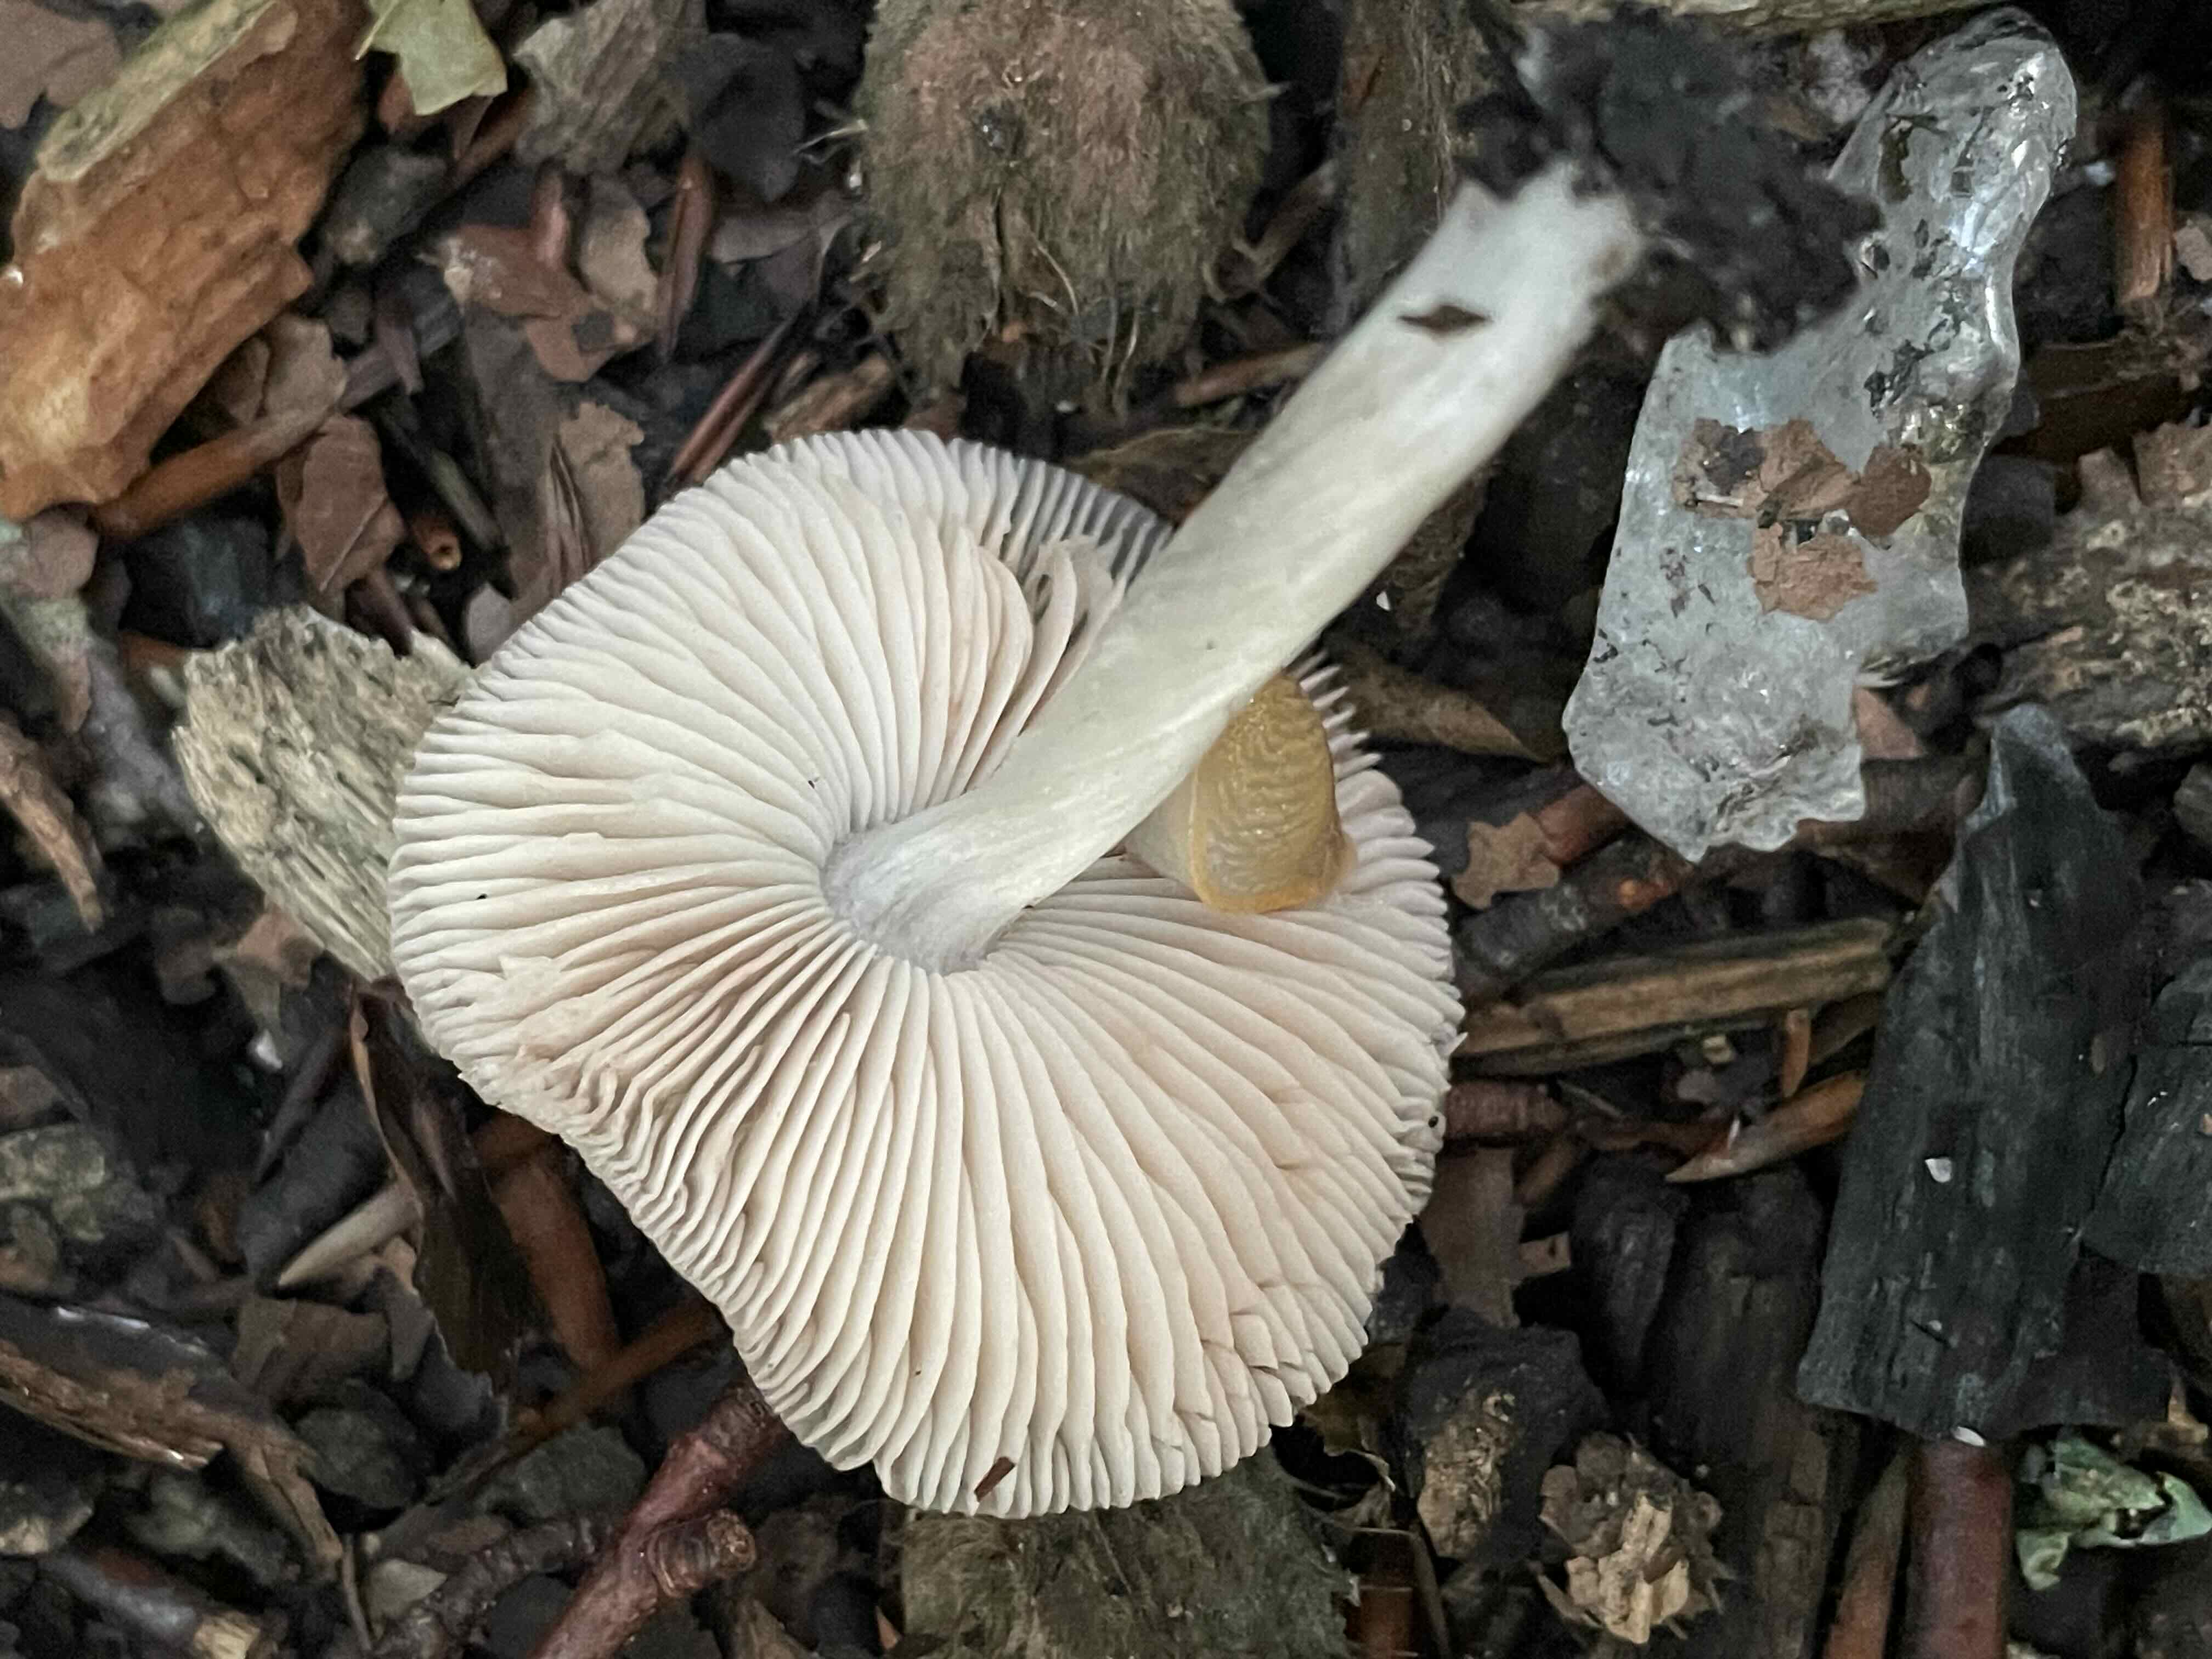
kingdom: Fungi
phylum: Basidiomycota
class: Agaricomycetes
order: Agaricales
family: Pluteaceae
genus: Pluteus
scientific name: Pluteus
